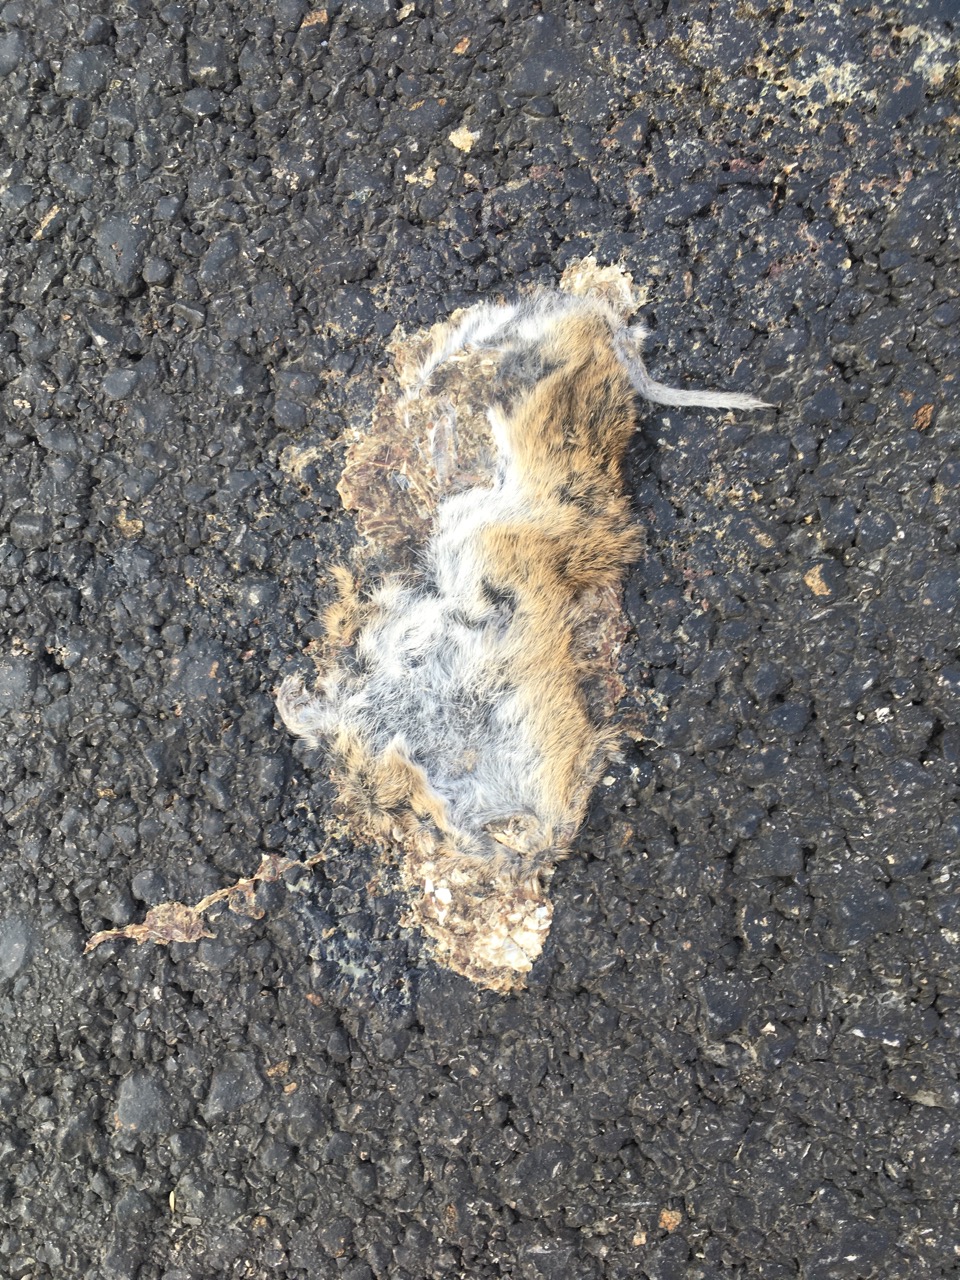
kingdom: Animalia
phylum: Chordata
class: Mammalia
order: Rodentia
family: Cricetidae
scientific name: Cricetidae
